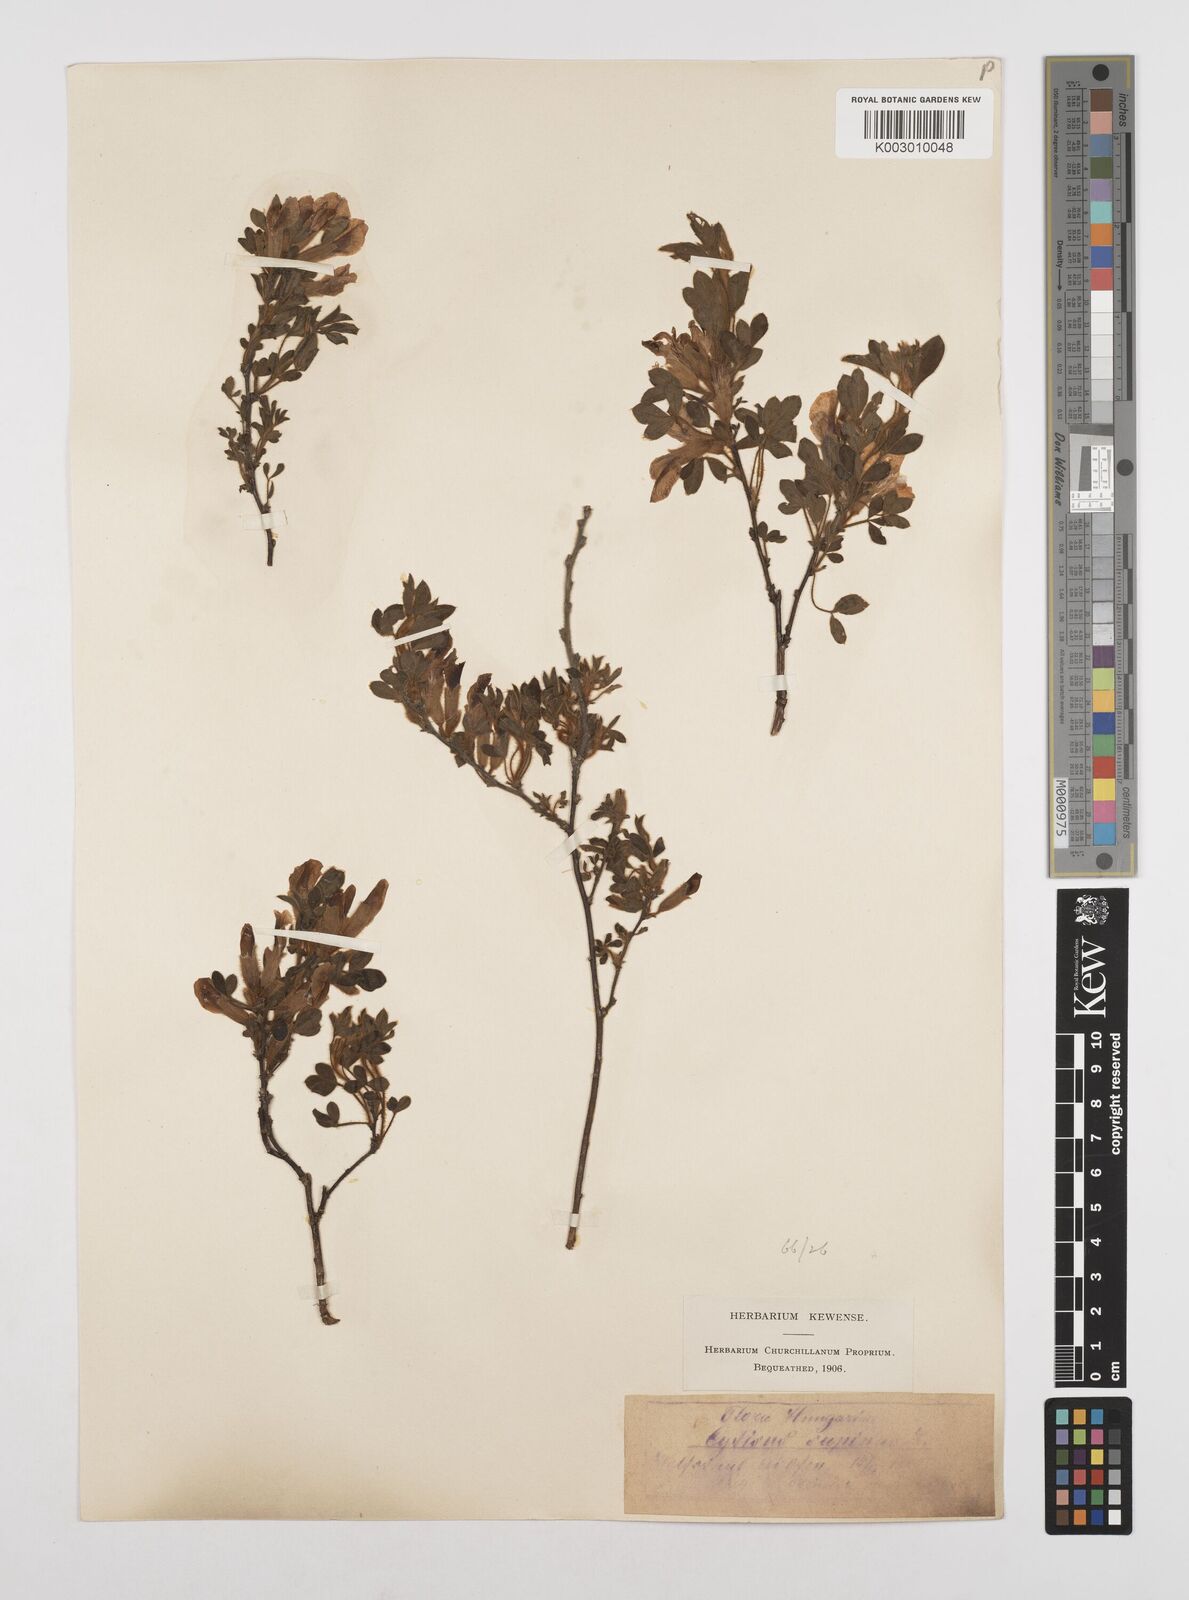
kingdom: Plantae
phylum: Tracheophyta
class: Magnoliopsida
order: Fabales
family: Fabaceae
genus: Chamaecytisus
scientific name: Chamaecytisus hirsutus
